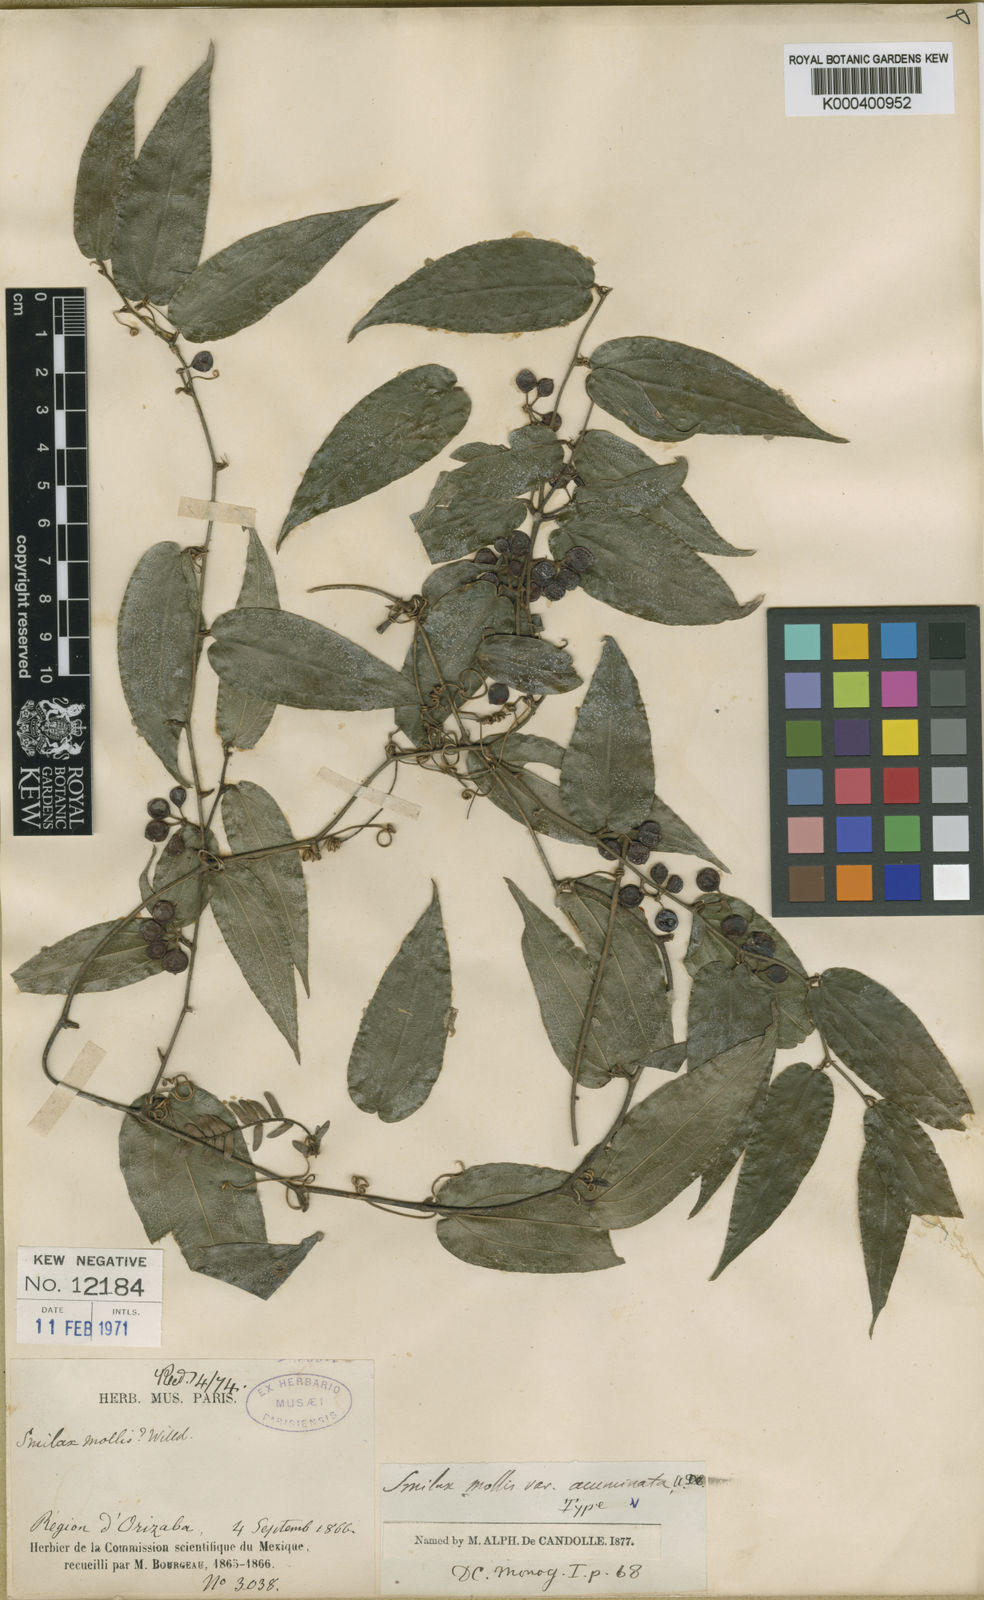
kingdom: Plantae
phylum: Tracheophyta
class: Liliopsida
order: Liliales
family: Smilacaceae
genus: Smilax
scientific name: Smilax mollis
